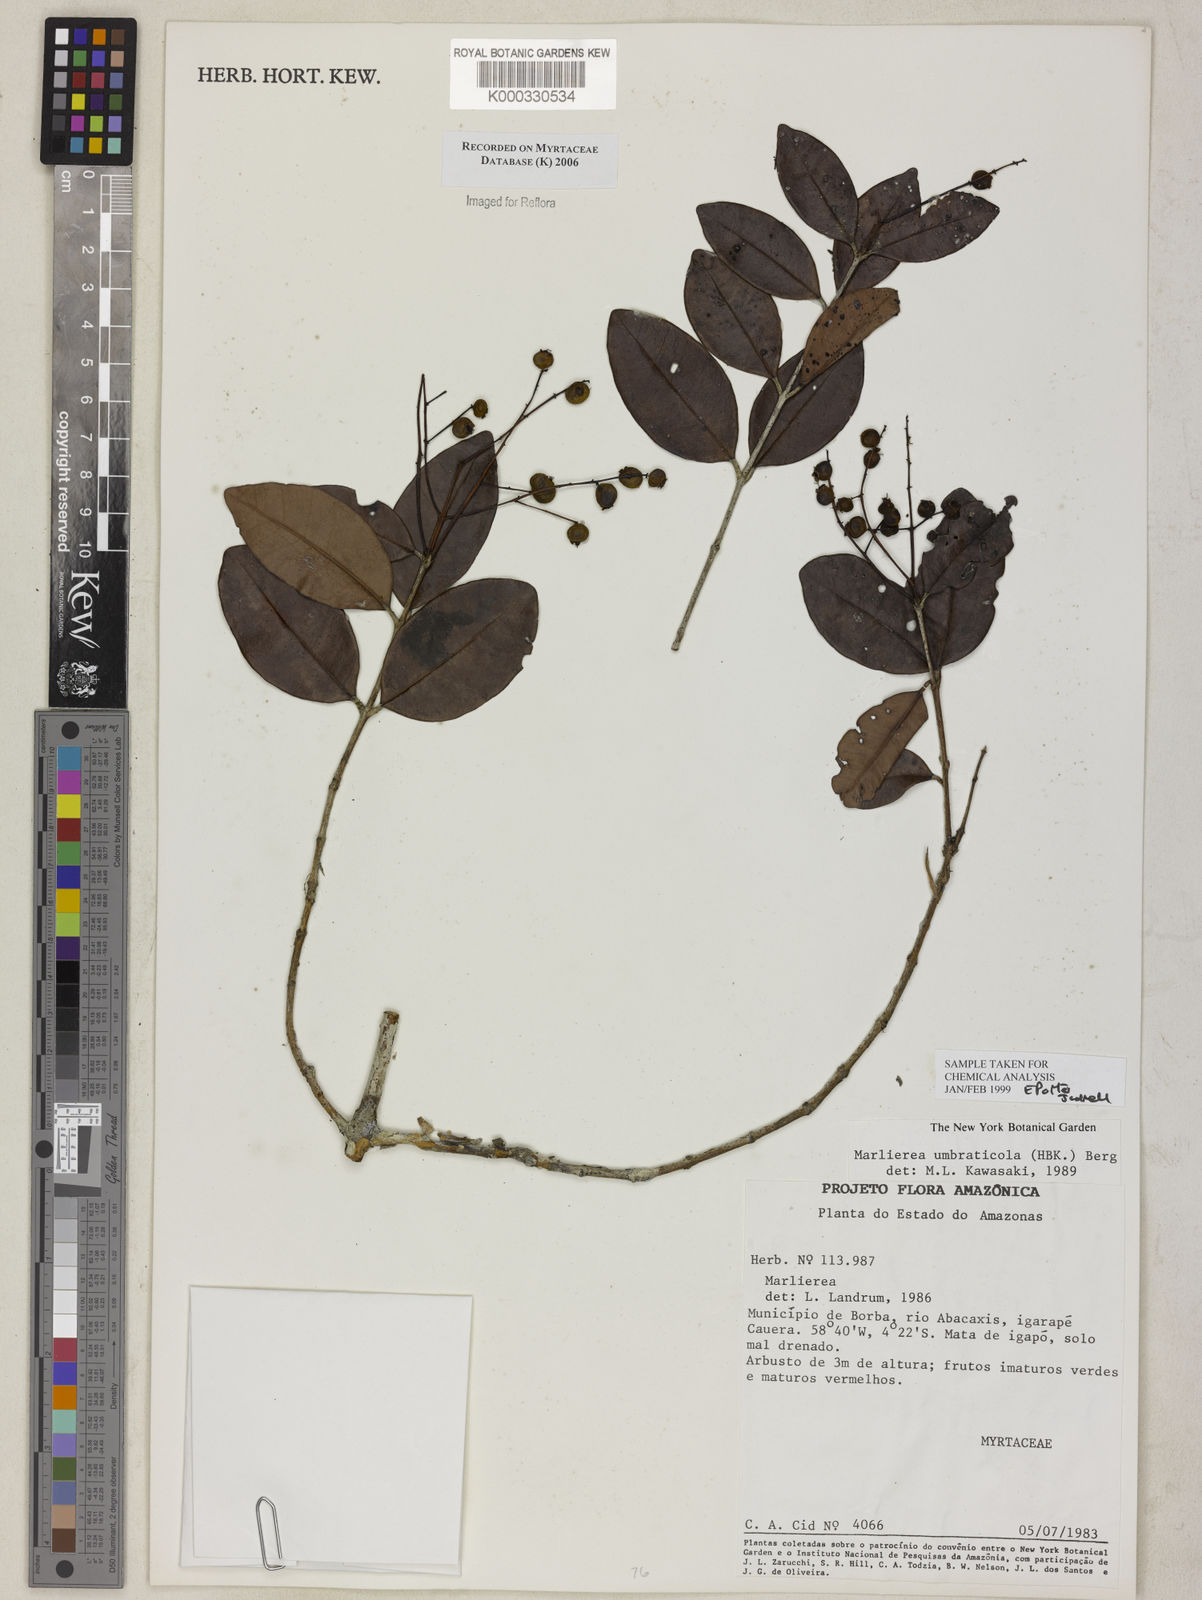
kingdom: Plantae
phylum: Tracheophyta
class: Magnoliopsida
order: Myrtales
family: Myrtaceae
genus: Myrcia
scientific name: Myrcia umbraticola
